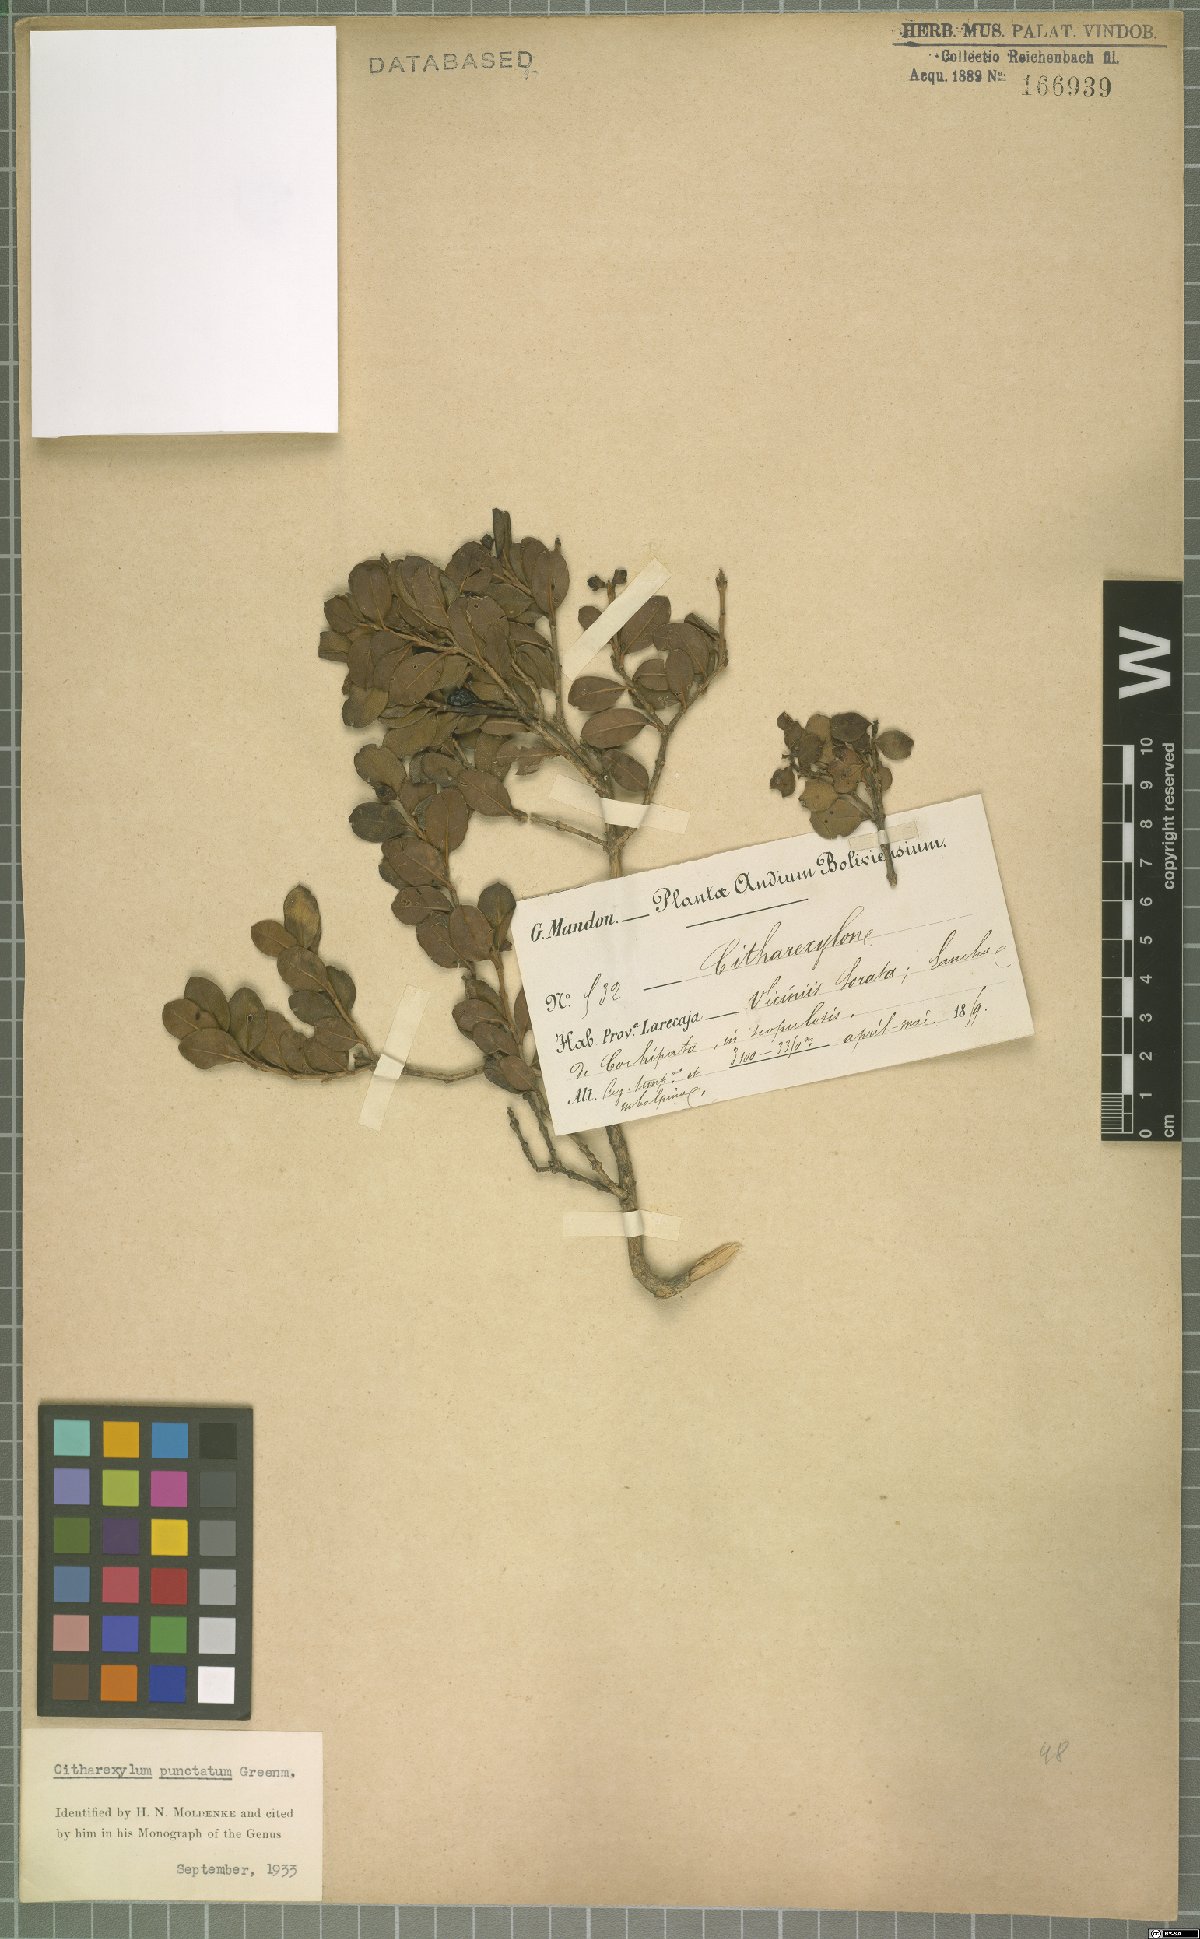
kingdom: Plantae
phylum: Tracheophyta
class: Magnoliopsida
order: Lamiales
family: Verbenaceae
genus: Citharexylum
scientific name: Citharexylum dentatum
